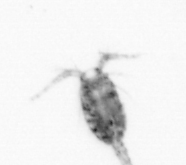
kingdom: Animalia
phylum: Arthropoda
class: Copepoda
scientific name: Copepoda
